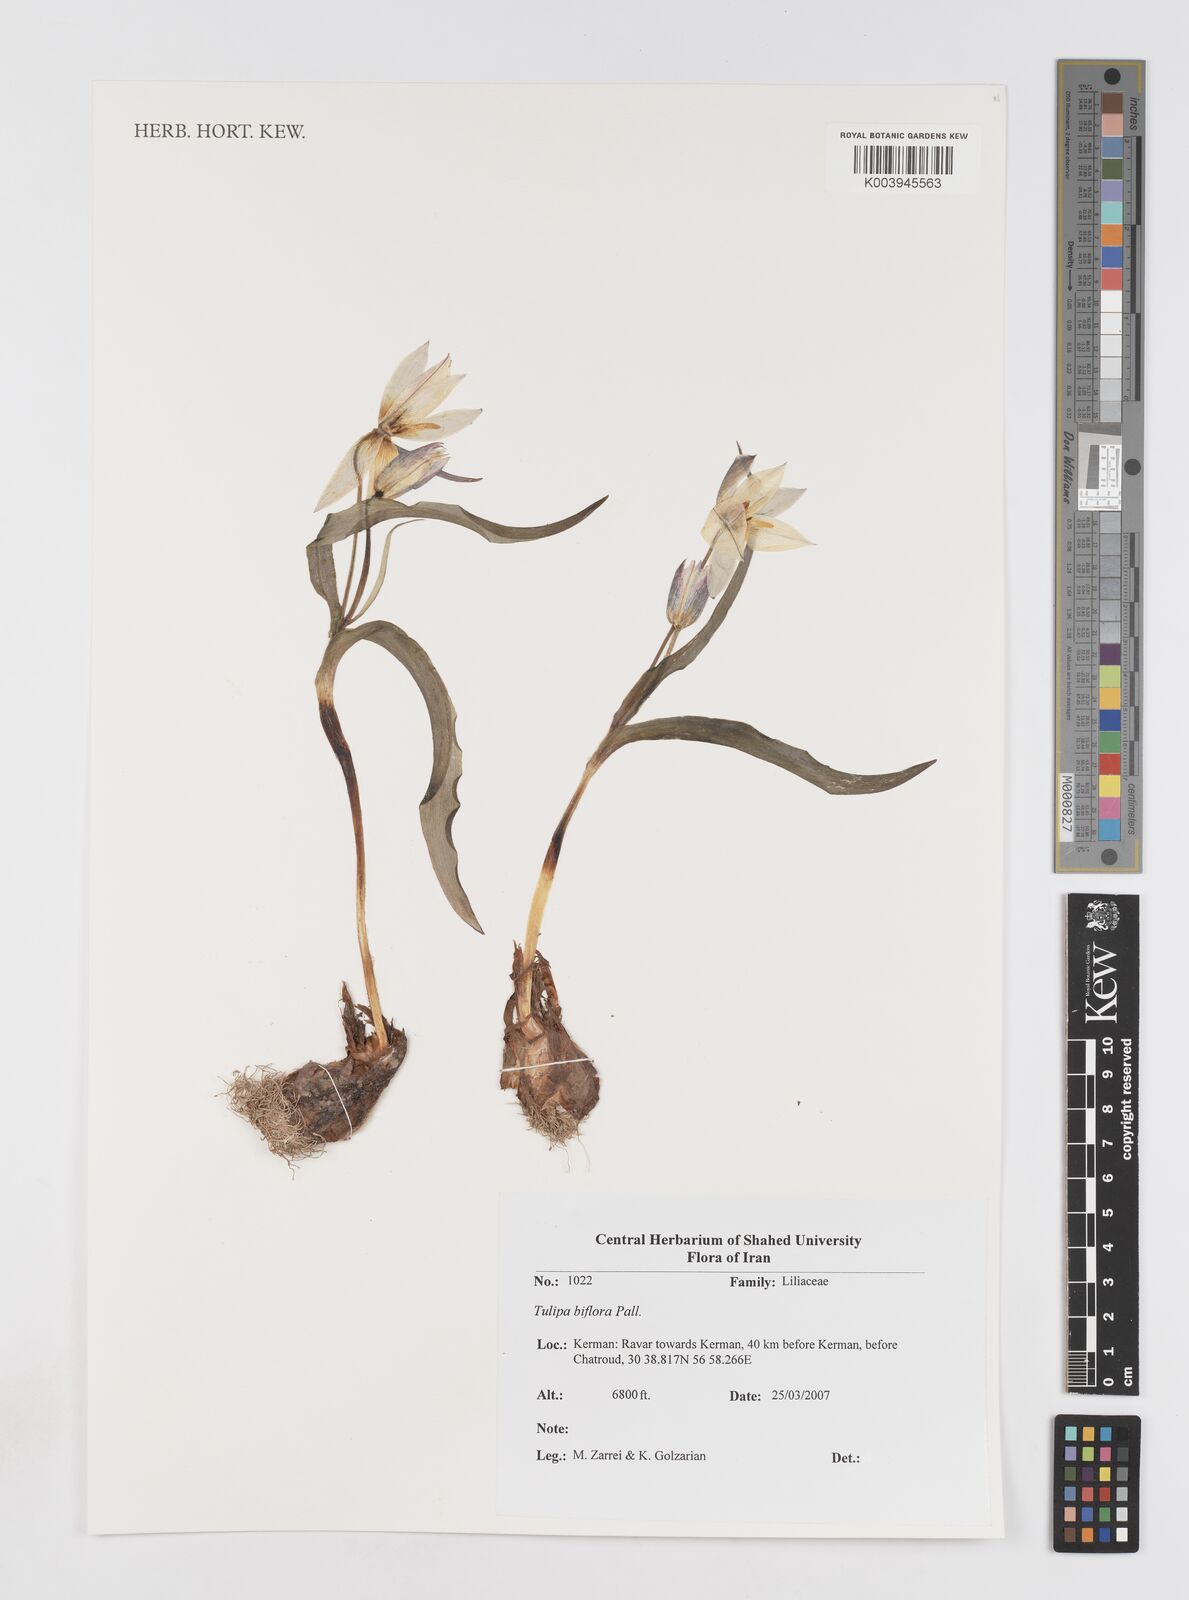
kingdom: Plantae
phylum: Tracheophyta
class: Liliopsida
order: Liliales
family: Liliaceae
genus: Tulipa
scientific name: Tulipa biflora
